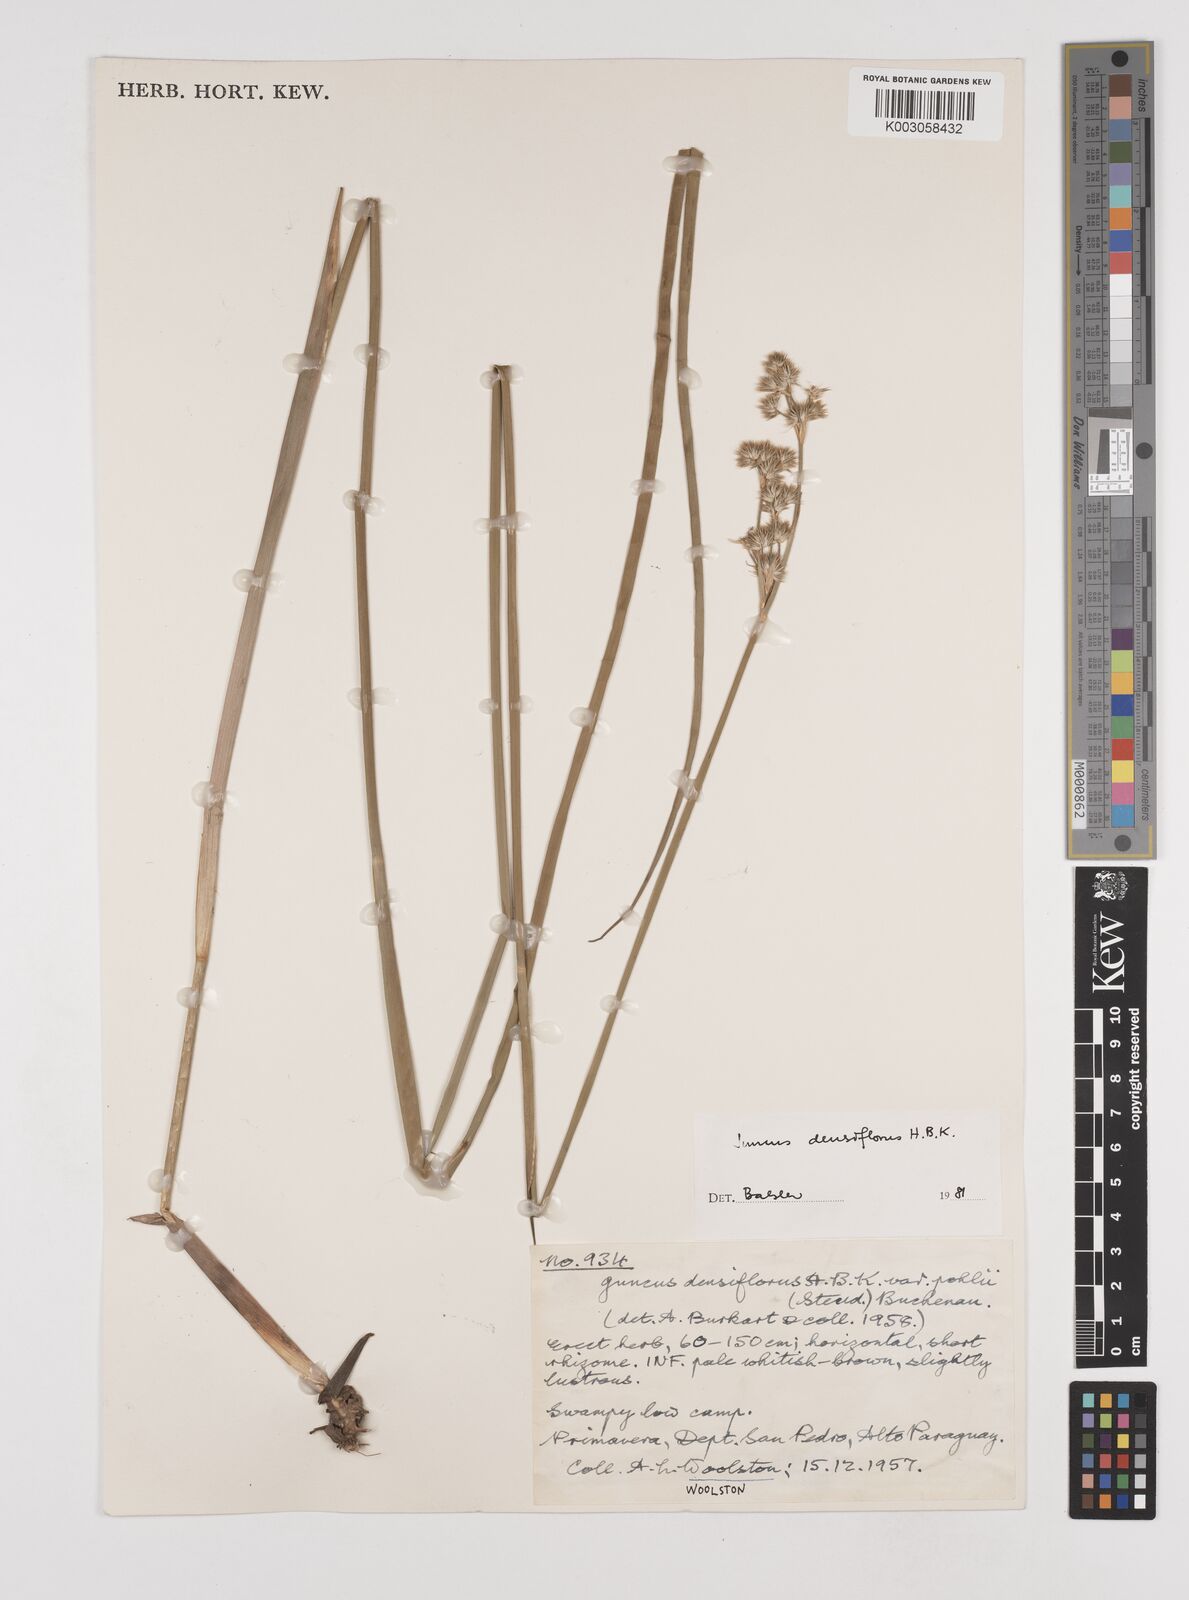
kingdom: Plantae
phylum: Tracheophyta
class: Liliopsida
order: Poales
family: Juncaceae
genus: Juncus
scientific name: Juncus densiflorus
